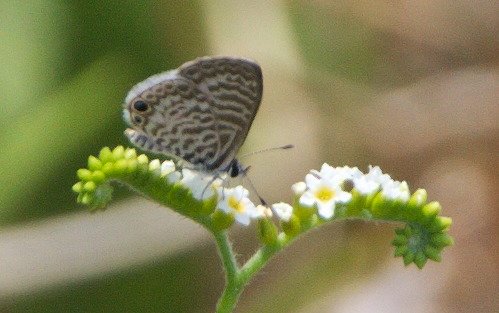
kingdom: Animalia
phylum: Arthropoda
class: Insecta
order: Lepidoptera
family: Lycaenidae
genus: Leptotes
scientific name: Leptotes cassius
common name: Cassius Blue
